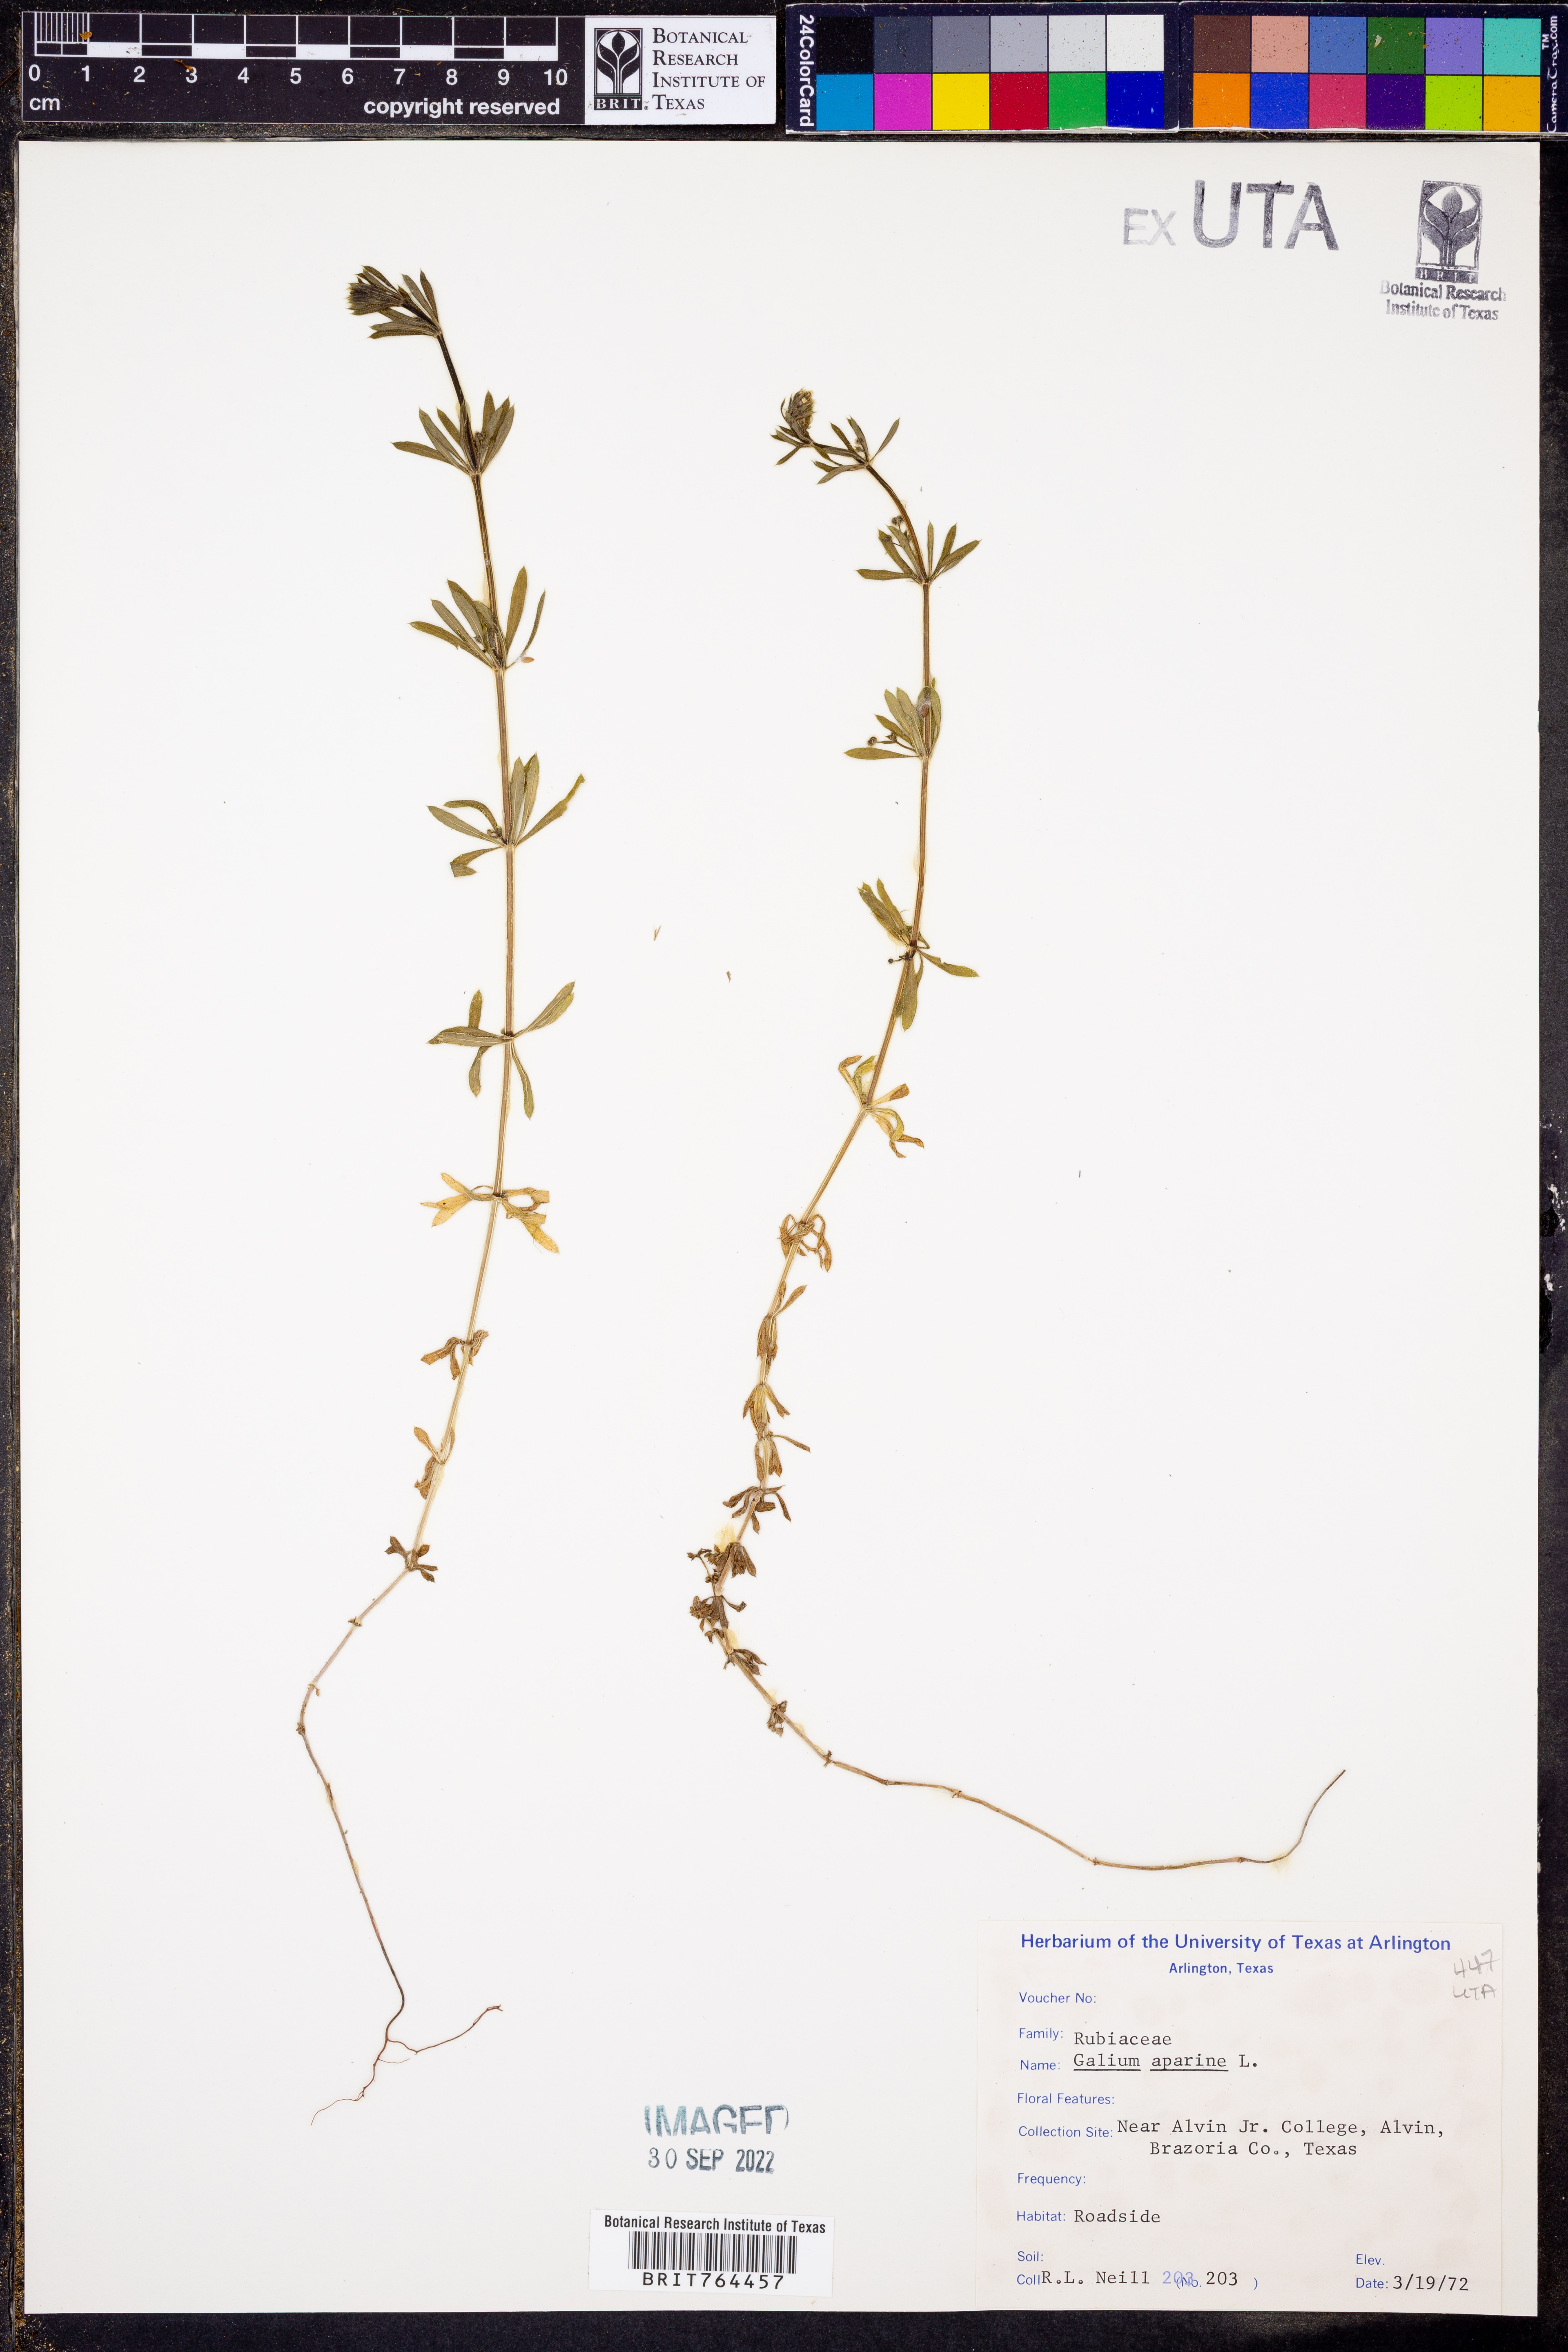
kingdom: Plantae
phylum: Tracheophyta
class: Magnoliopsida
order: Gentianales
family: Rubiaceae
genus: Galium
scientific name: Galium aparine
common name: Cleavers
